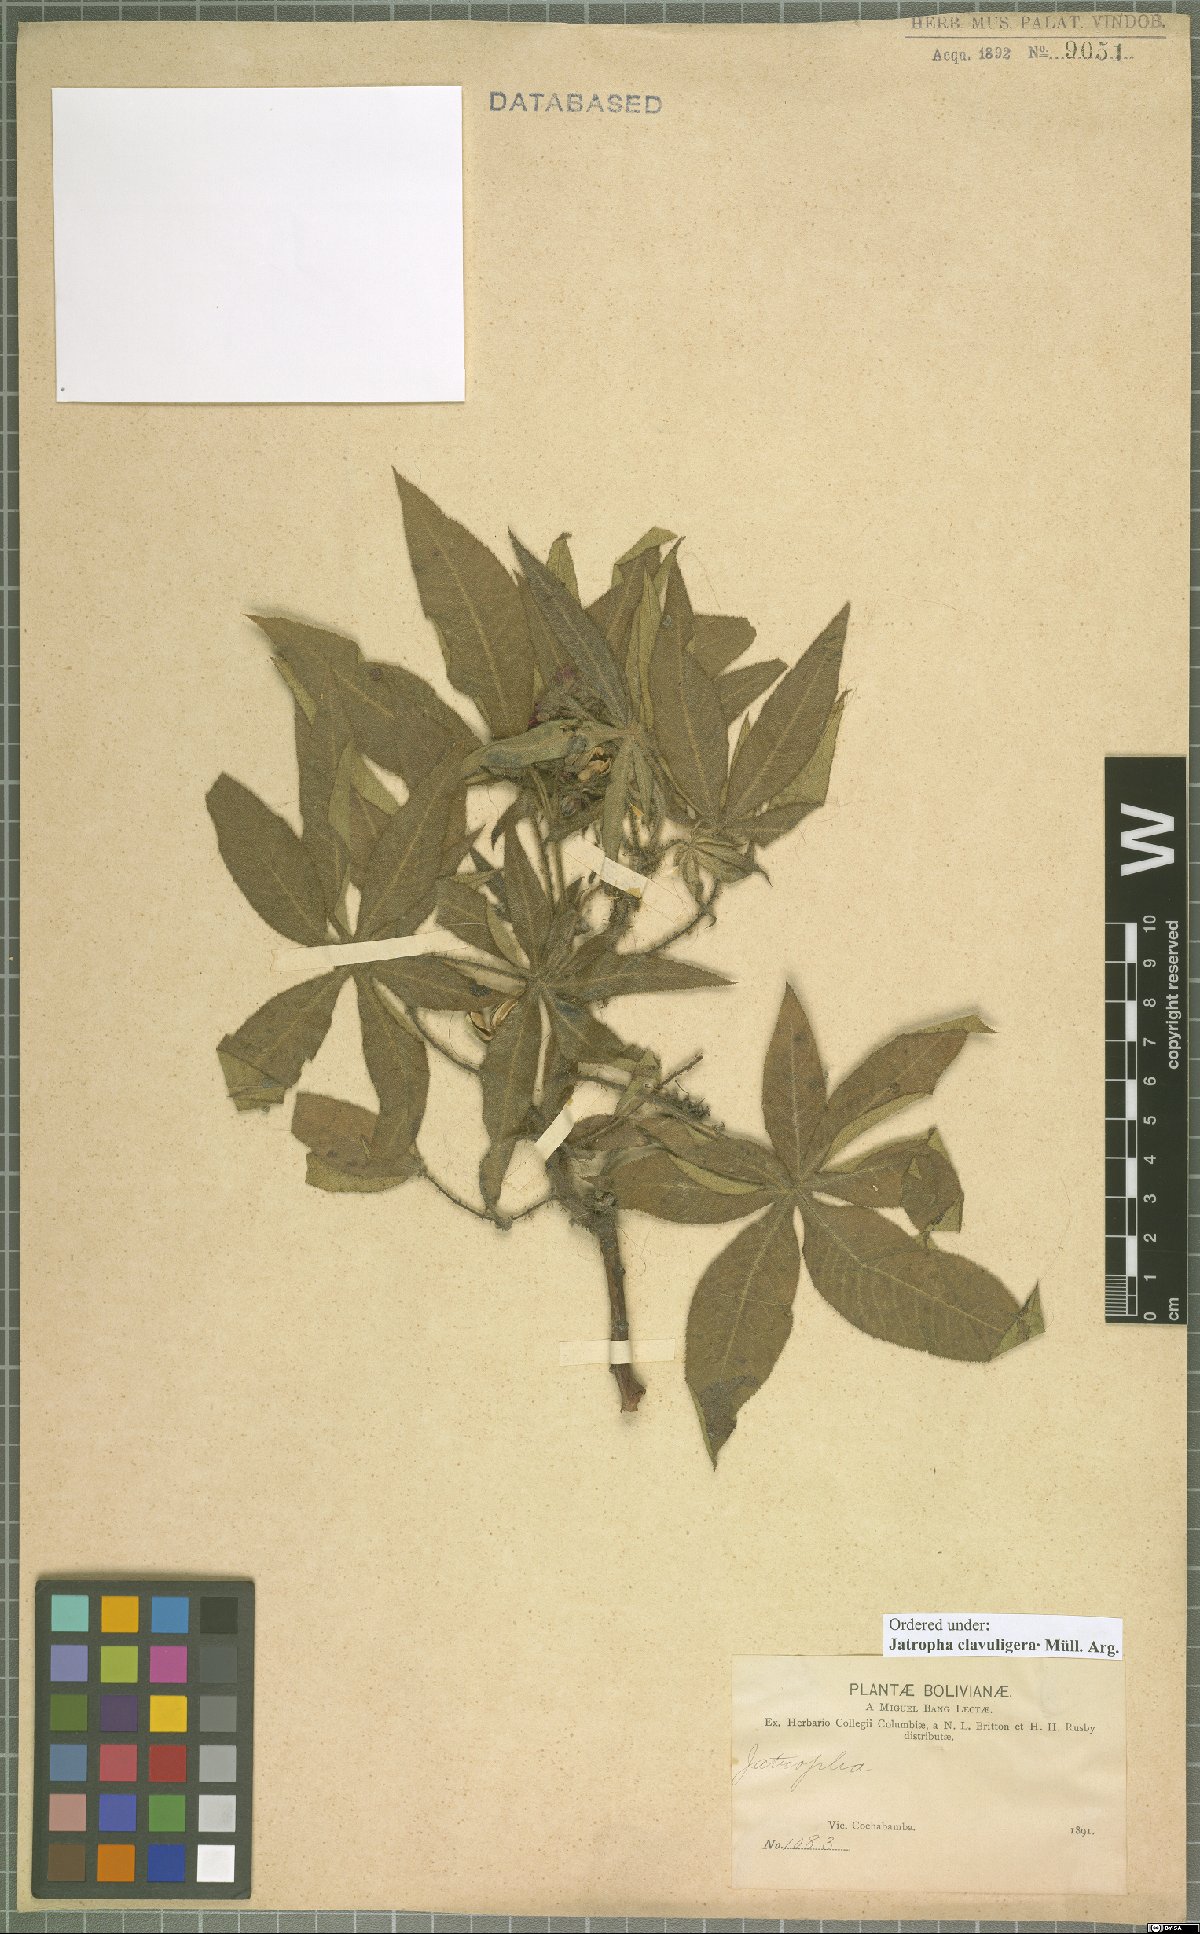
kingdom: Plantae
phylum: Tracheophyta
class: Magnoliopsida
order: Malpighiales
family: Euphorbiaceae
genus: Jatropha
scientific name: Jatropha clavuligera
